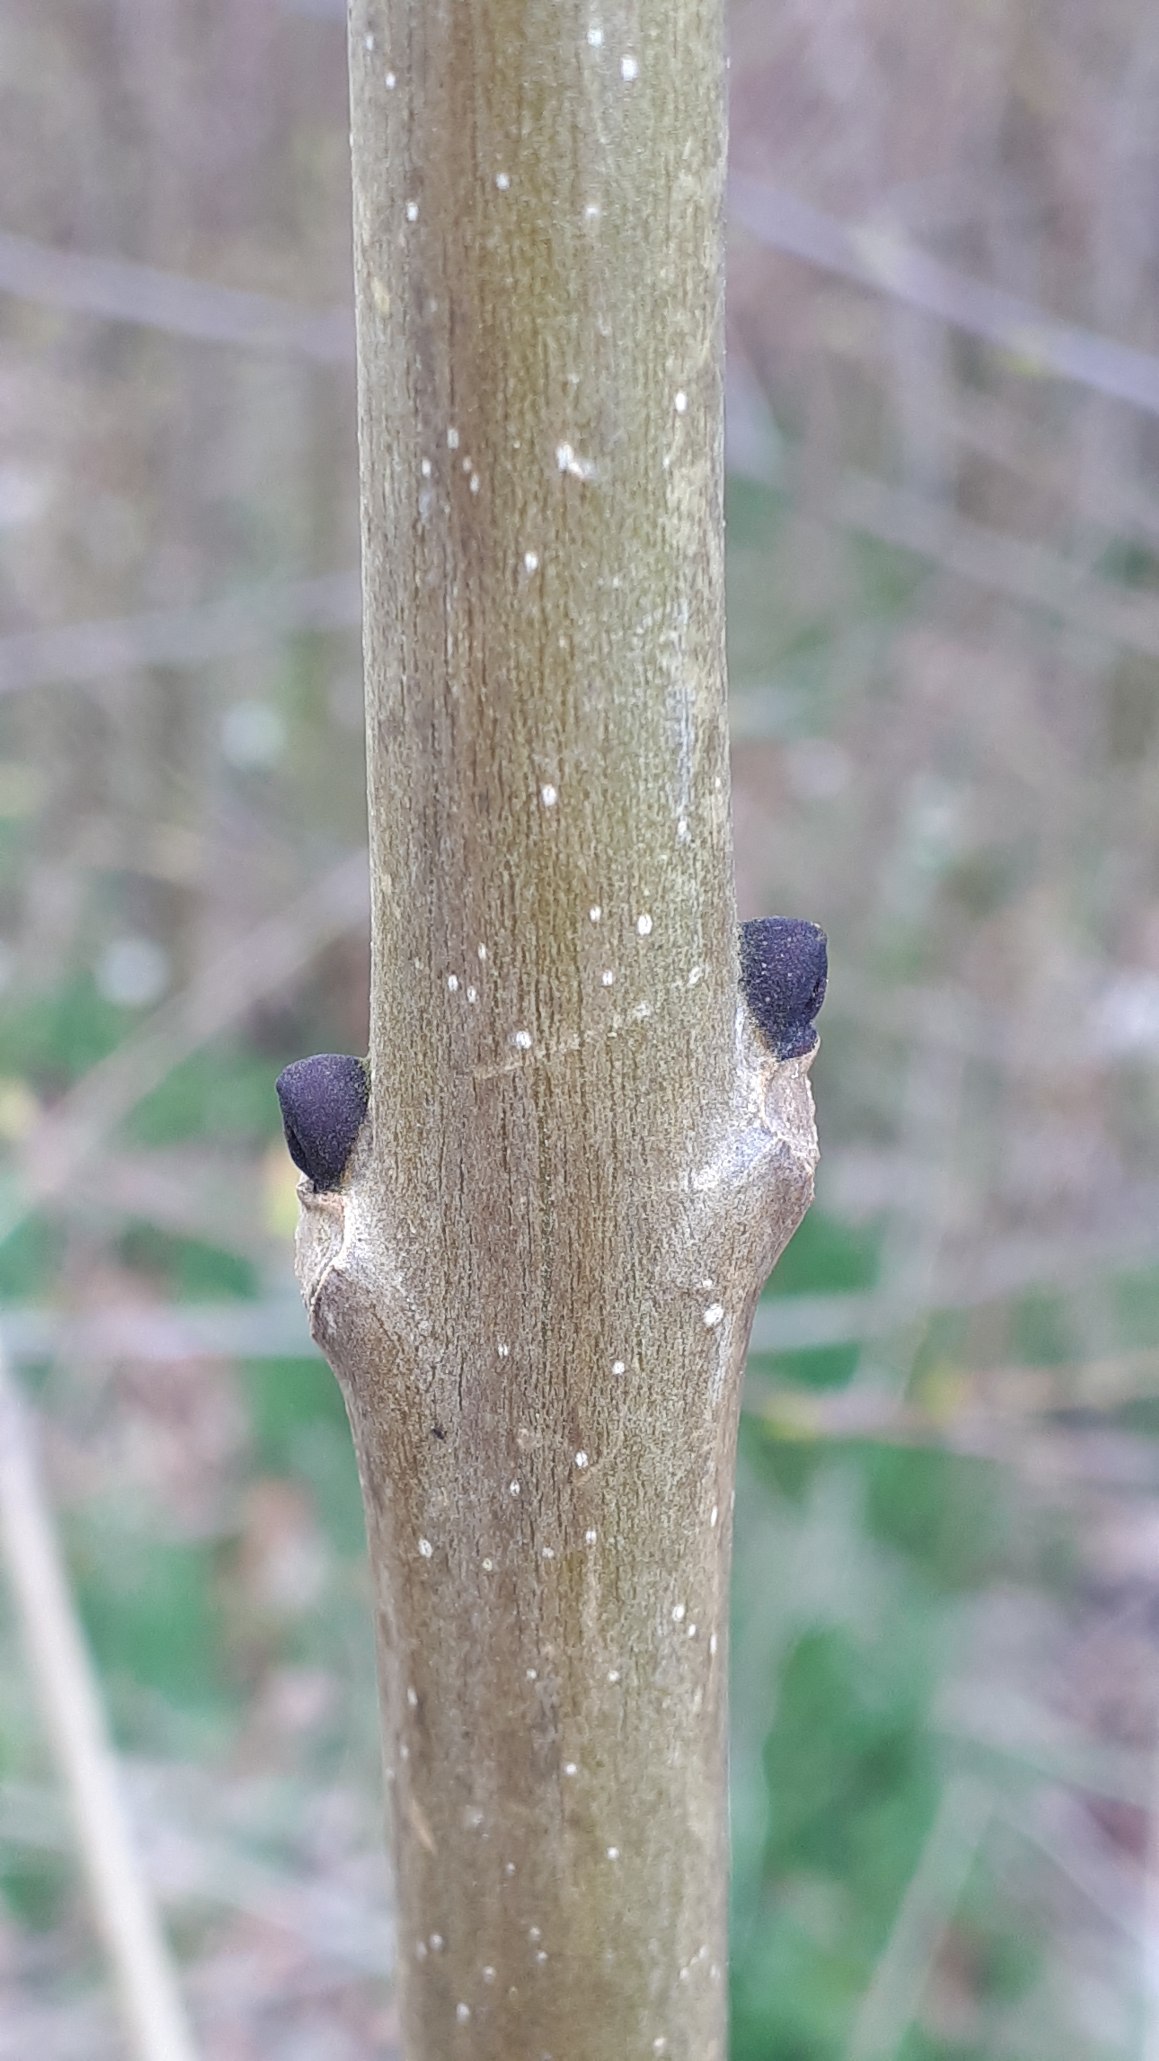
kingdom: Plantae
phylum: Tracheophyta
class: Magnoliopsida
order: Lamiales
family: Oleaceae
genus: Fraxinus
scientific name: Fraxinus excelsior
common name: Ask
